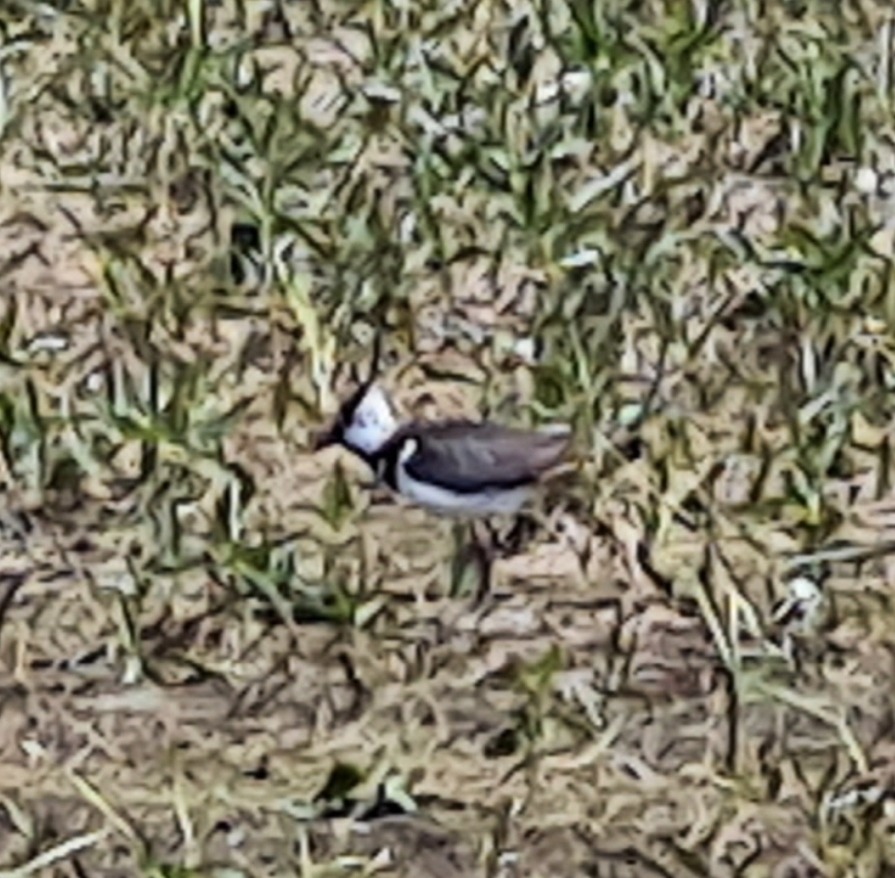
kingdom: Animalia
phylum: Chordata
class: Aves
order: Charadriiformes
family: Charadriidae
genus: Vanellus
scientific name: Vanellus vanellus
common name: Vibe
